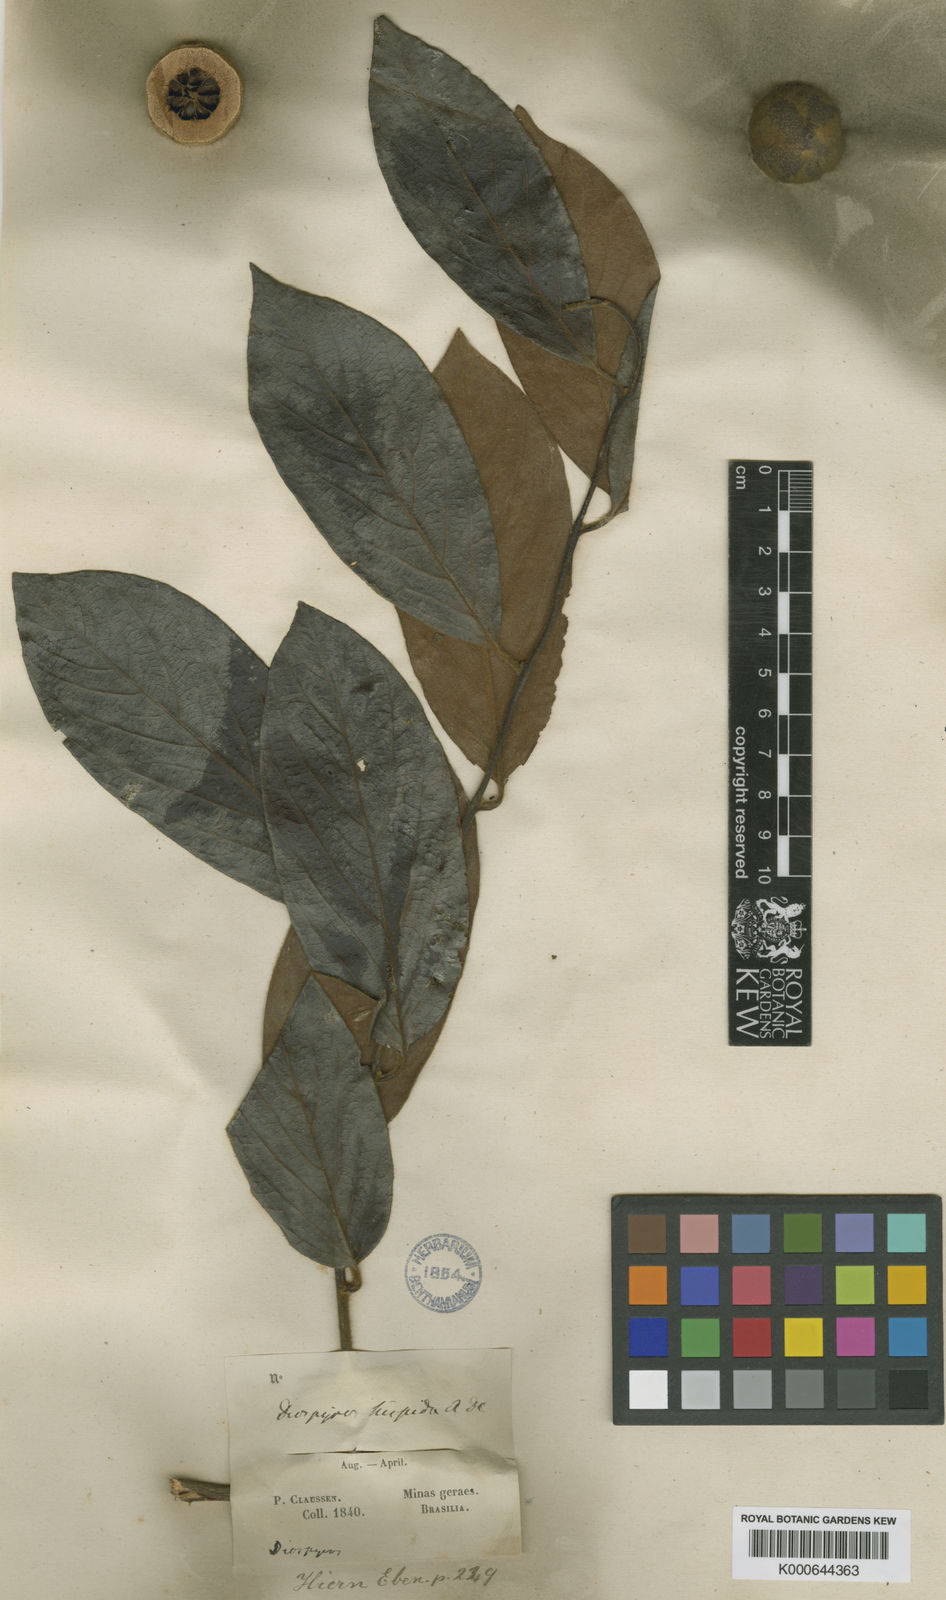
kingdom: Plantae
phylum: Tracheophyta
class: Magnoliopsida
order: Ericales
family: Ebenaceae
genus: Diospyros
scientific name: Diospyros lasiocalyx
